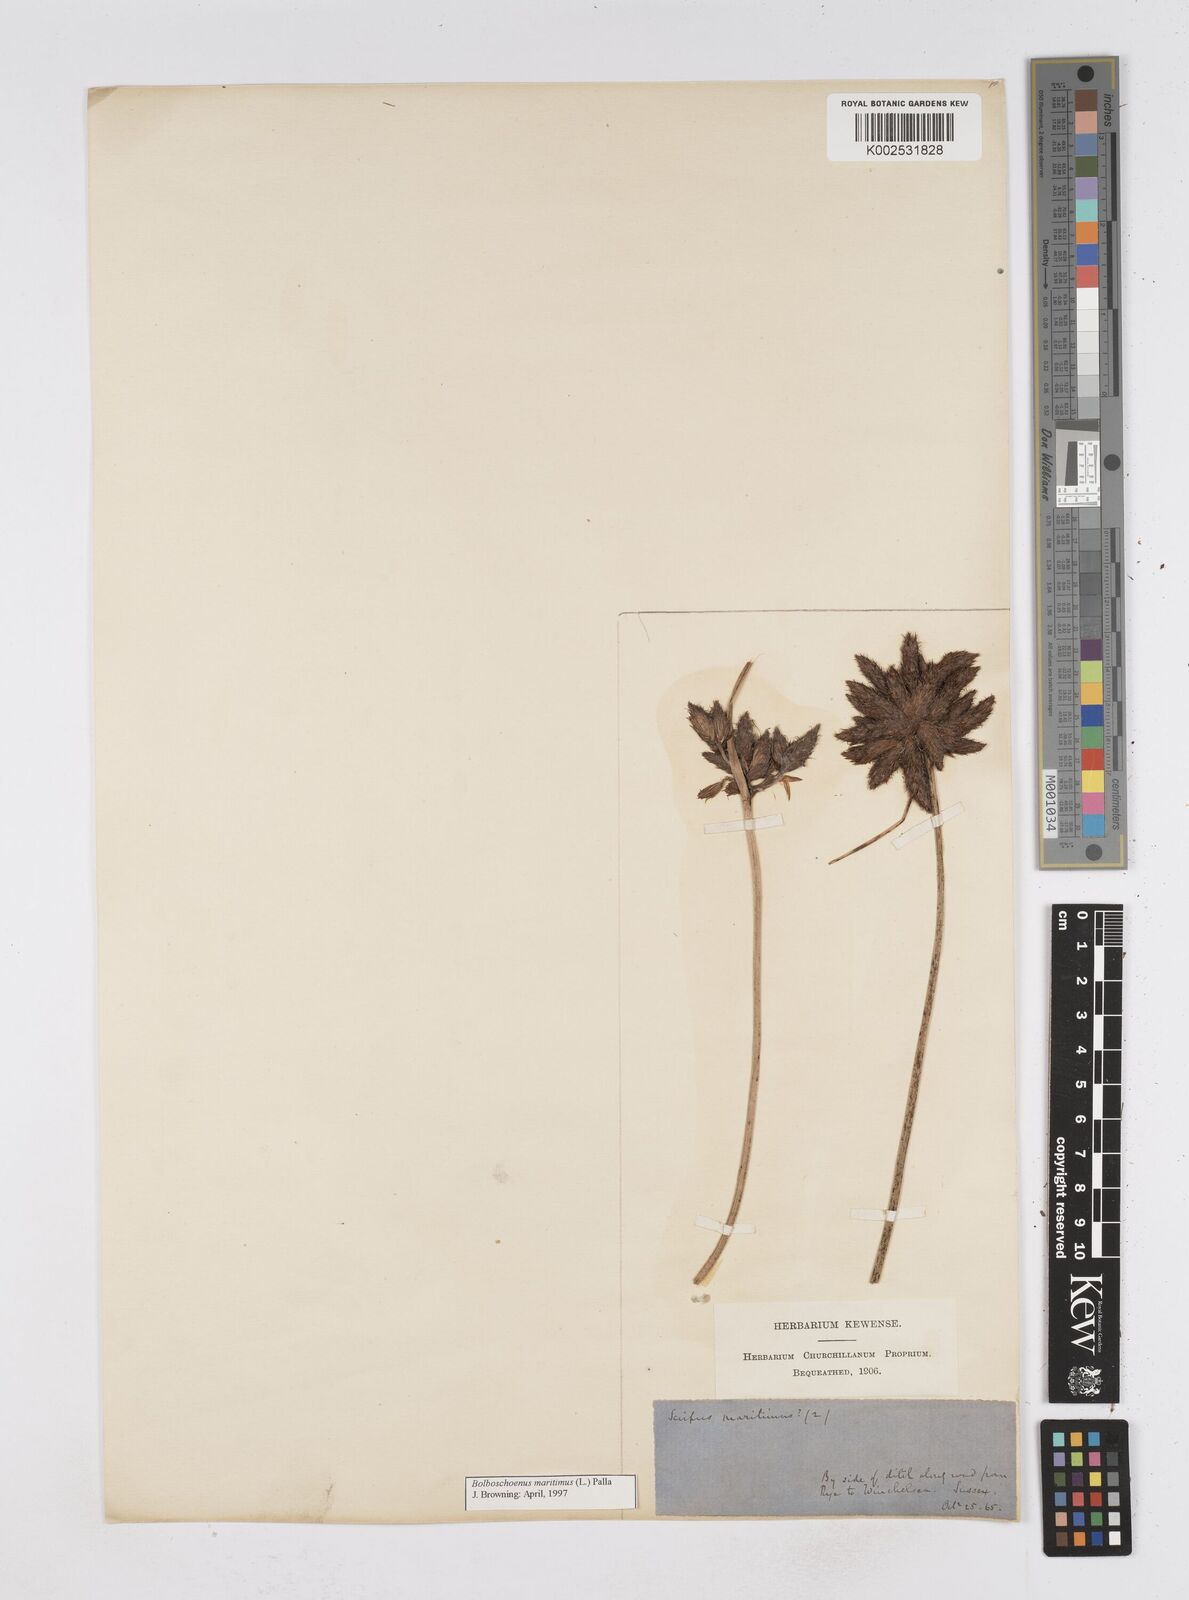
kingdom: Plantae
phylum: Tracheophyta
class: Liliopsida
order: Poales
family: Cyperaceae
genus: Bolboschoenus
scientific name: Bolboschoenus maritimus
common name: Sea club-rush
